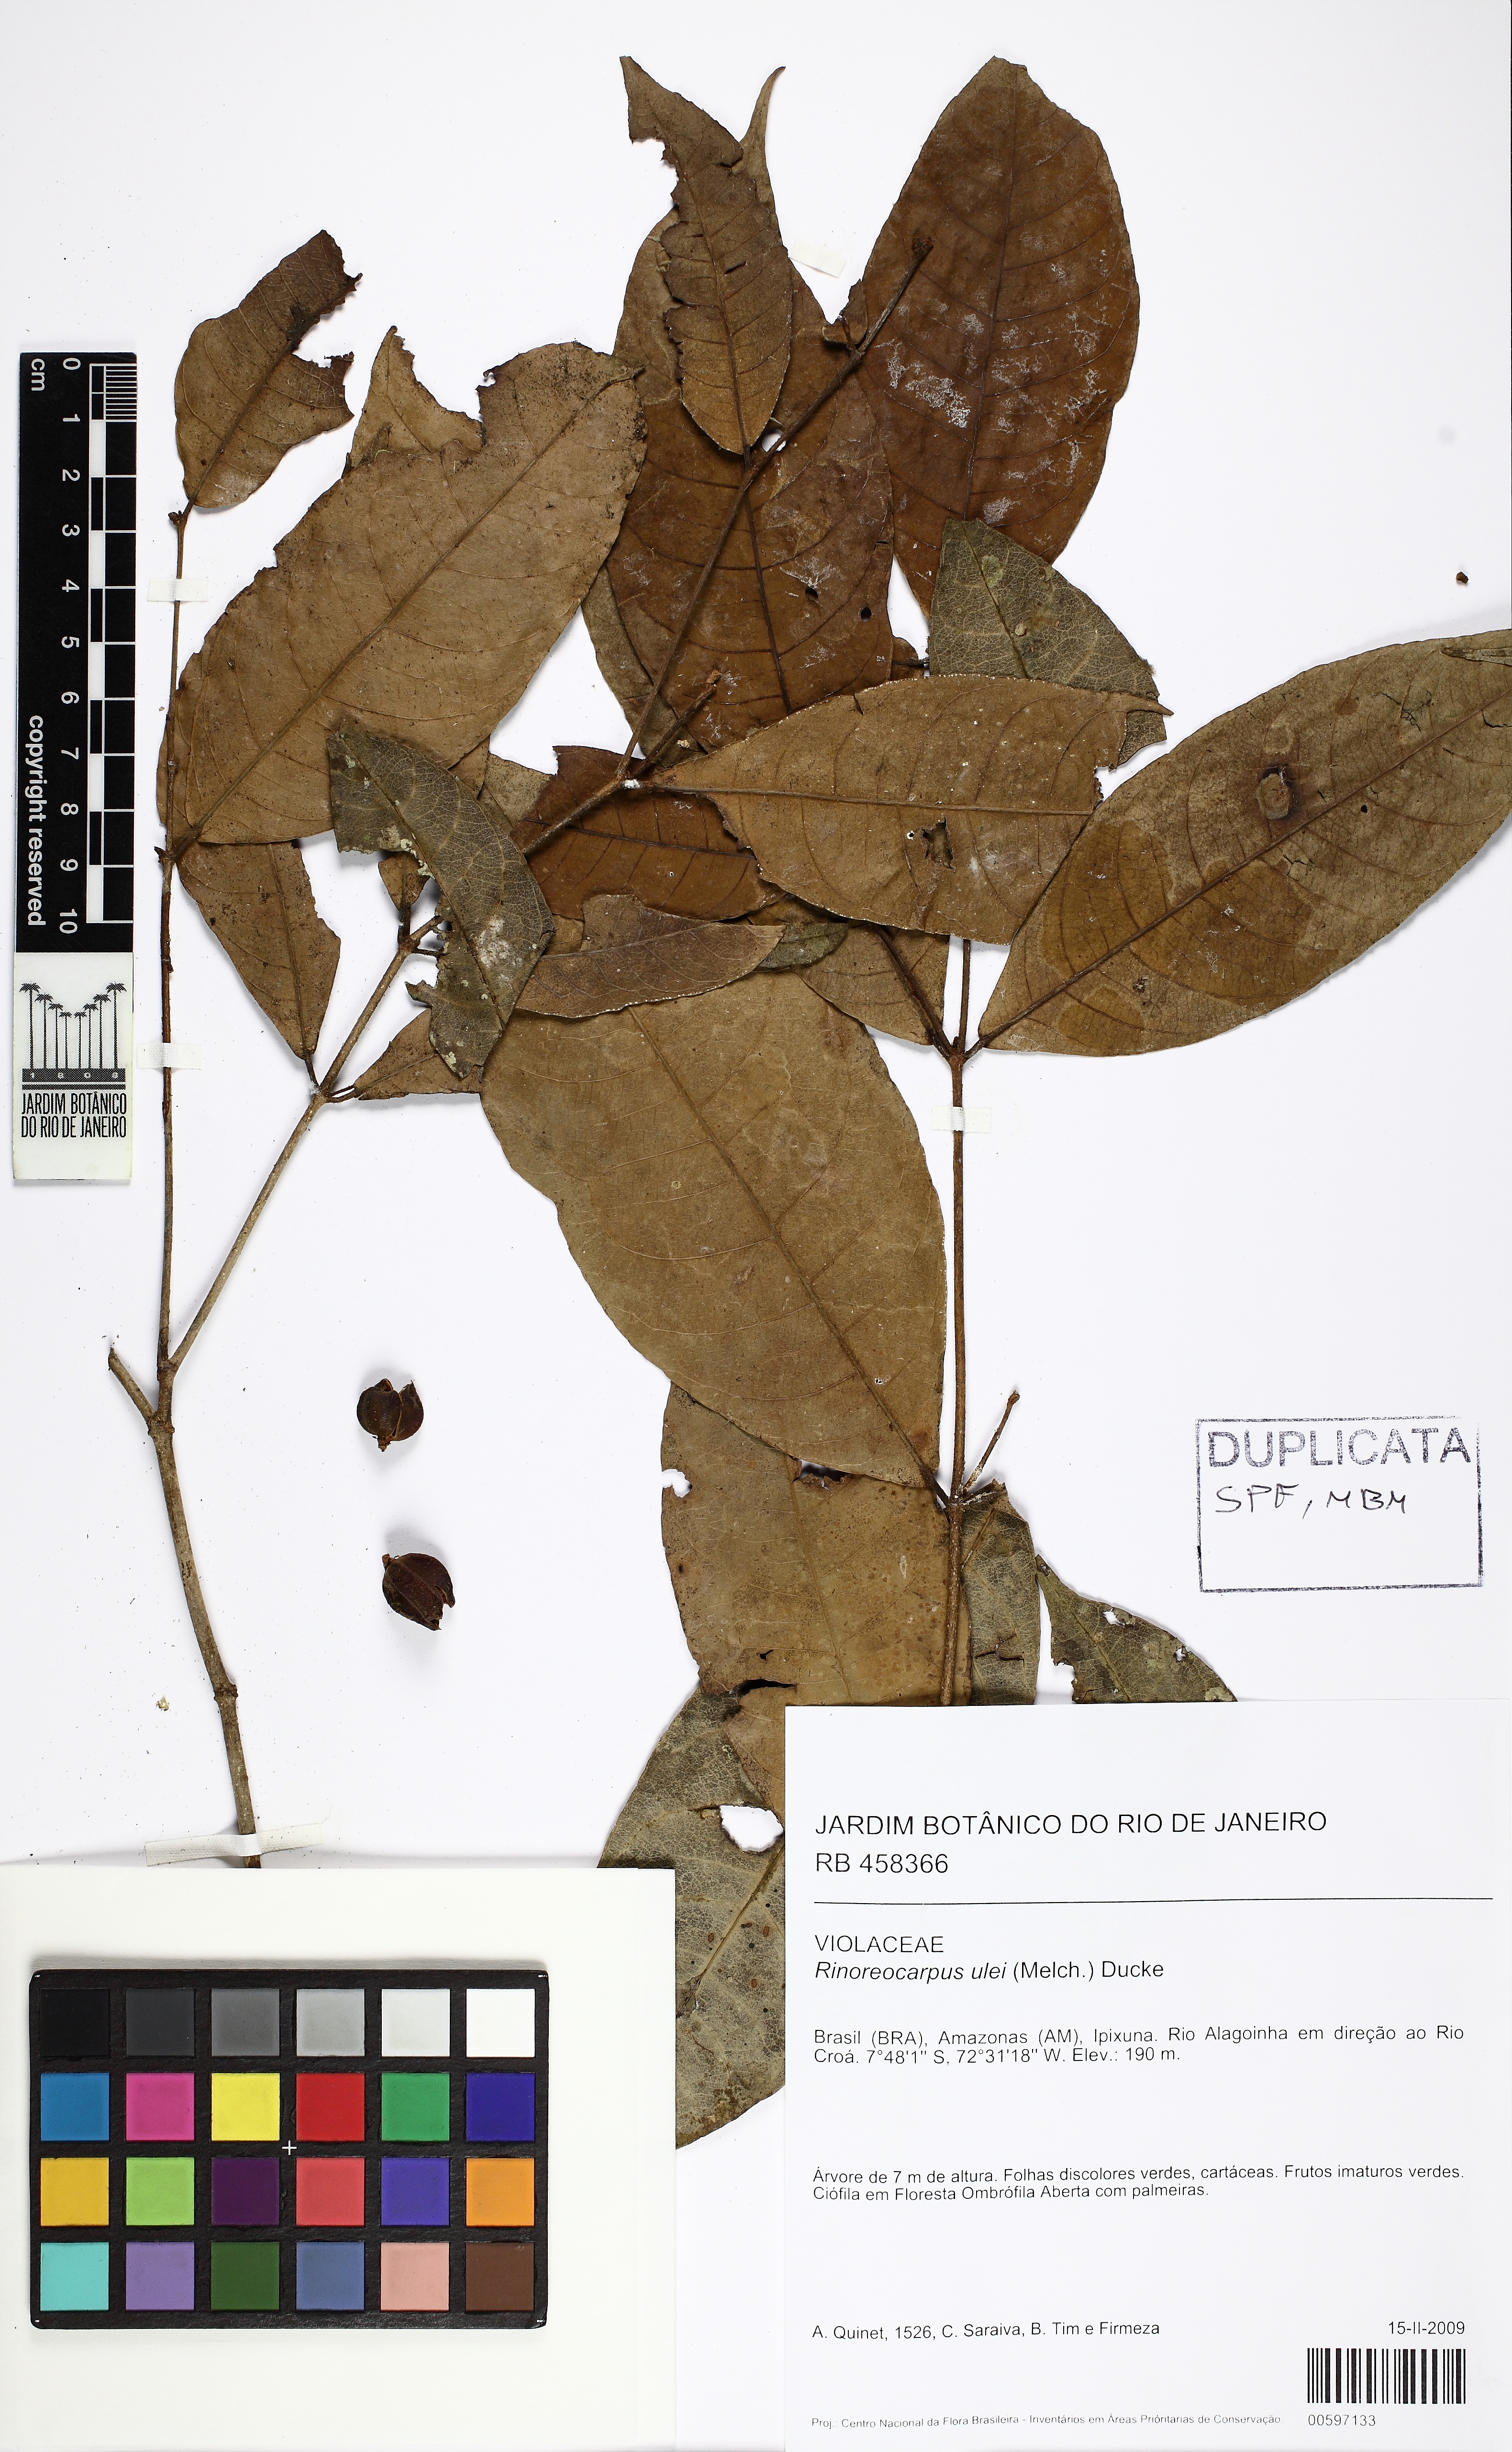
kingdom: Plantae
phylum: Tracheophyta
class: Magnoliopsida
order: Malpighiales
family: Violaceae
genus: Rinoreocarpus
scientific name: Rinoreocarpus ulei
